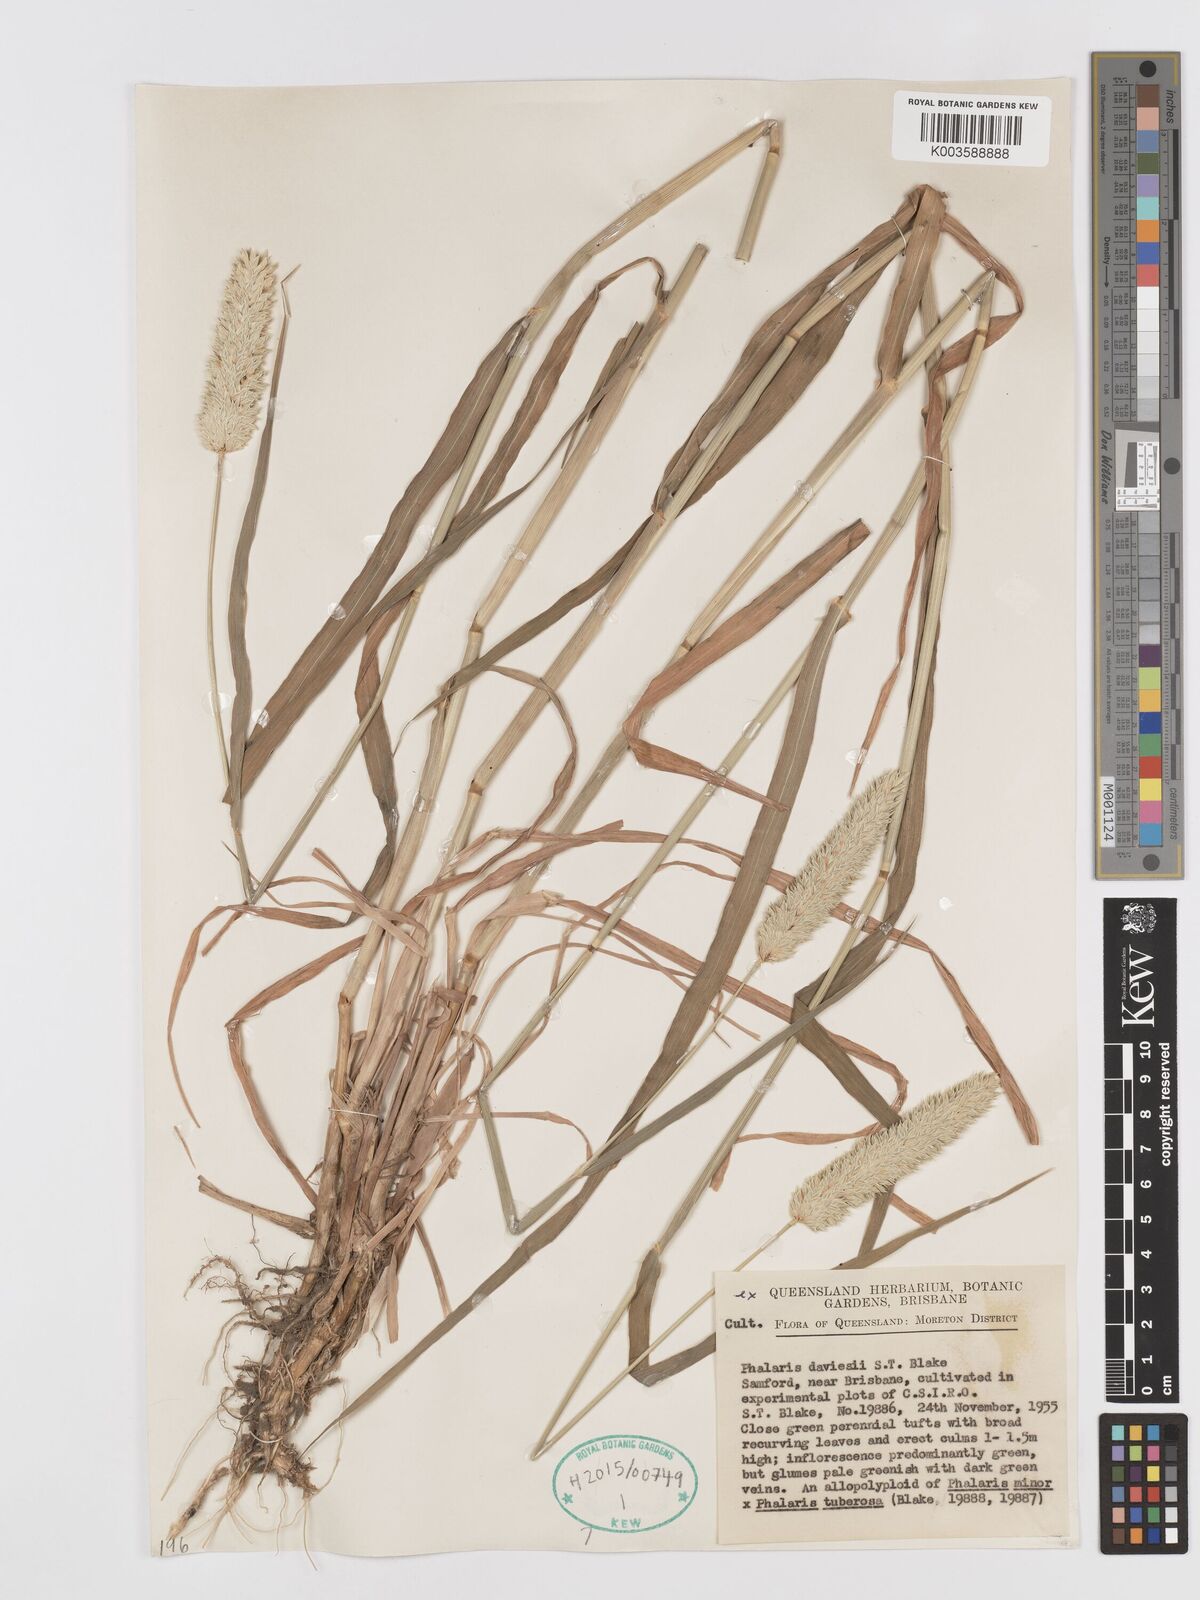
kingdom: Plantae
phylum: Tracheophyta
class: Liliopsida
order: Poales
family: Poaceae
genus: Phalaris
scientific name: Phalaris daviesii
